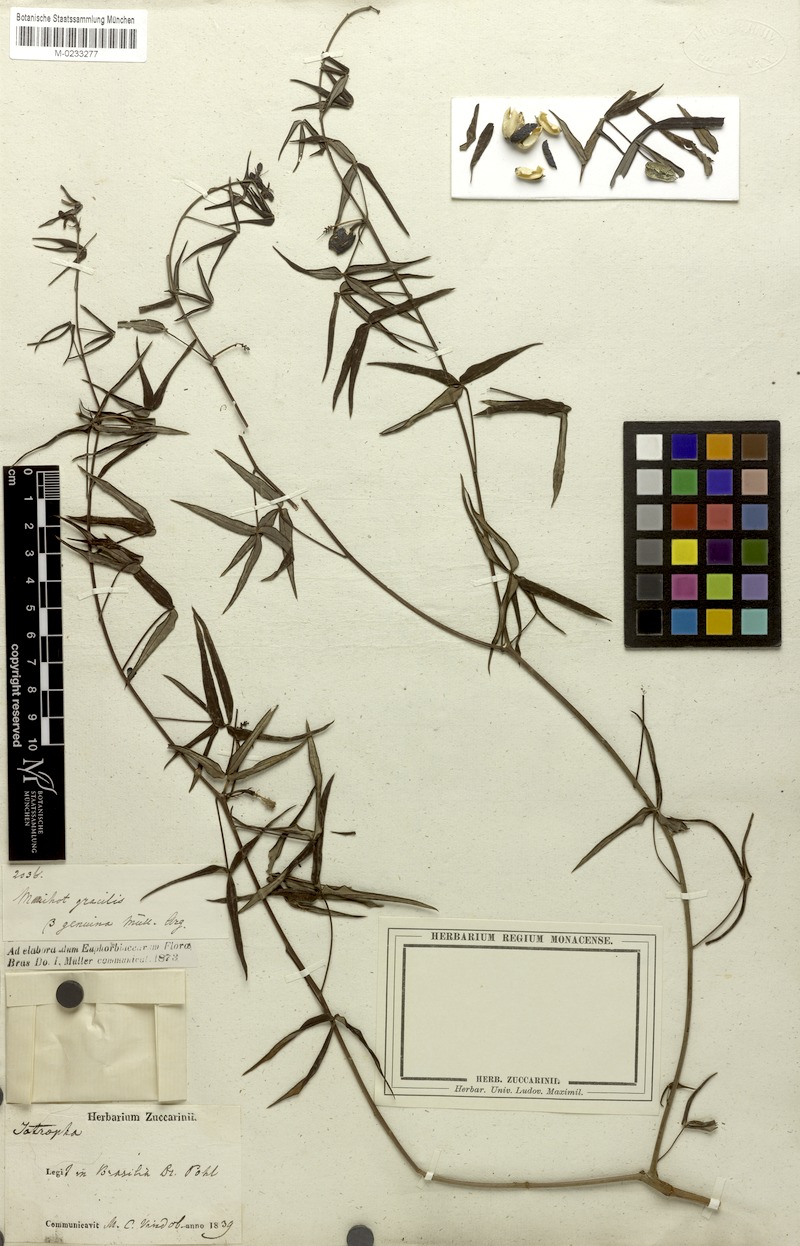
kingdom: Plantae
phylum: Tracheophyta
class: Magnoliopsida
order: Malpighiales
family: Euphorbiaceae
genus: Manihot
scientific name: Manihot gracilis
